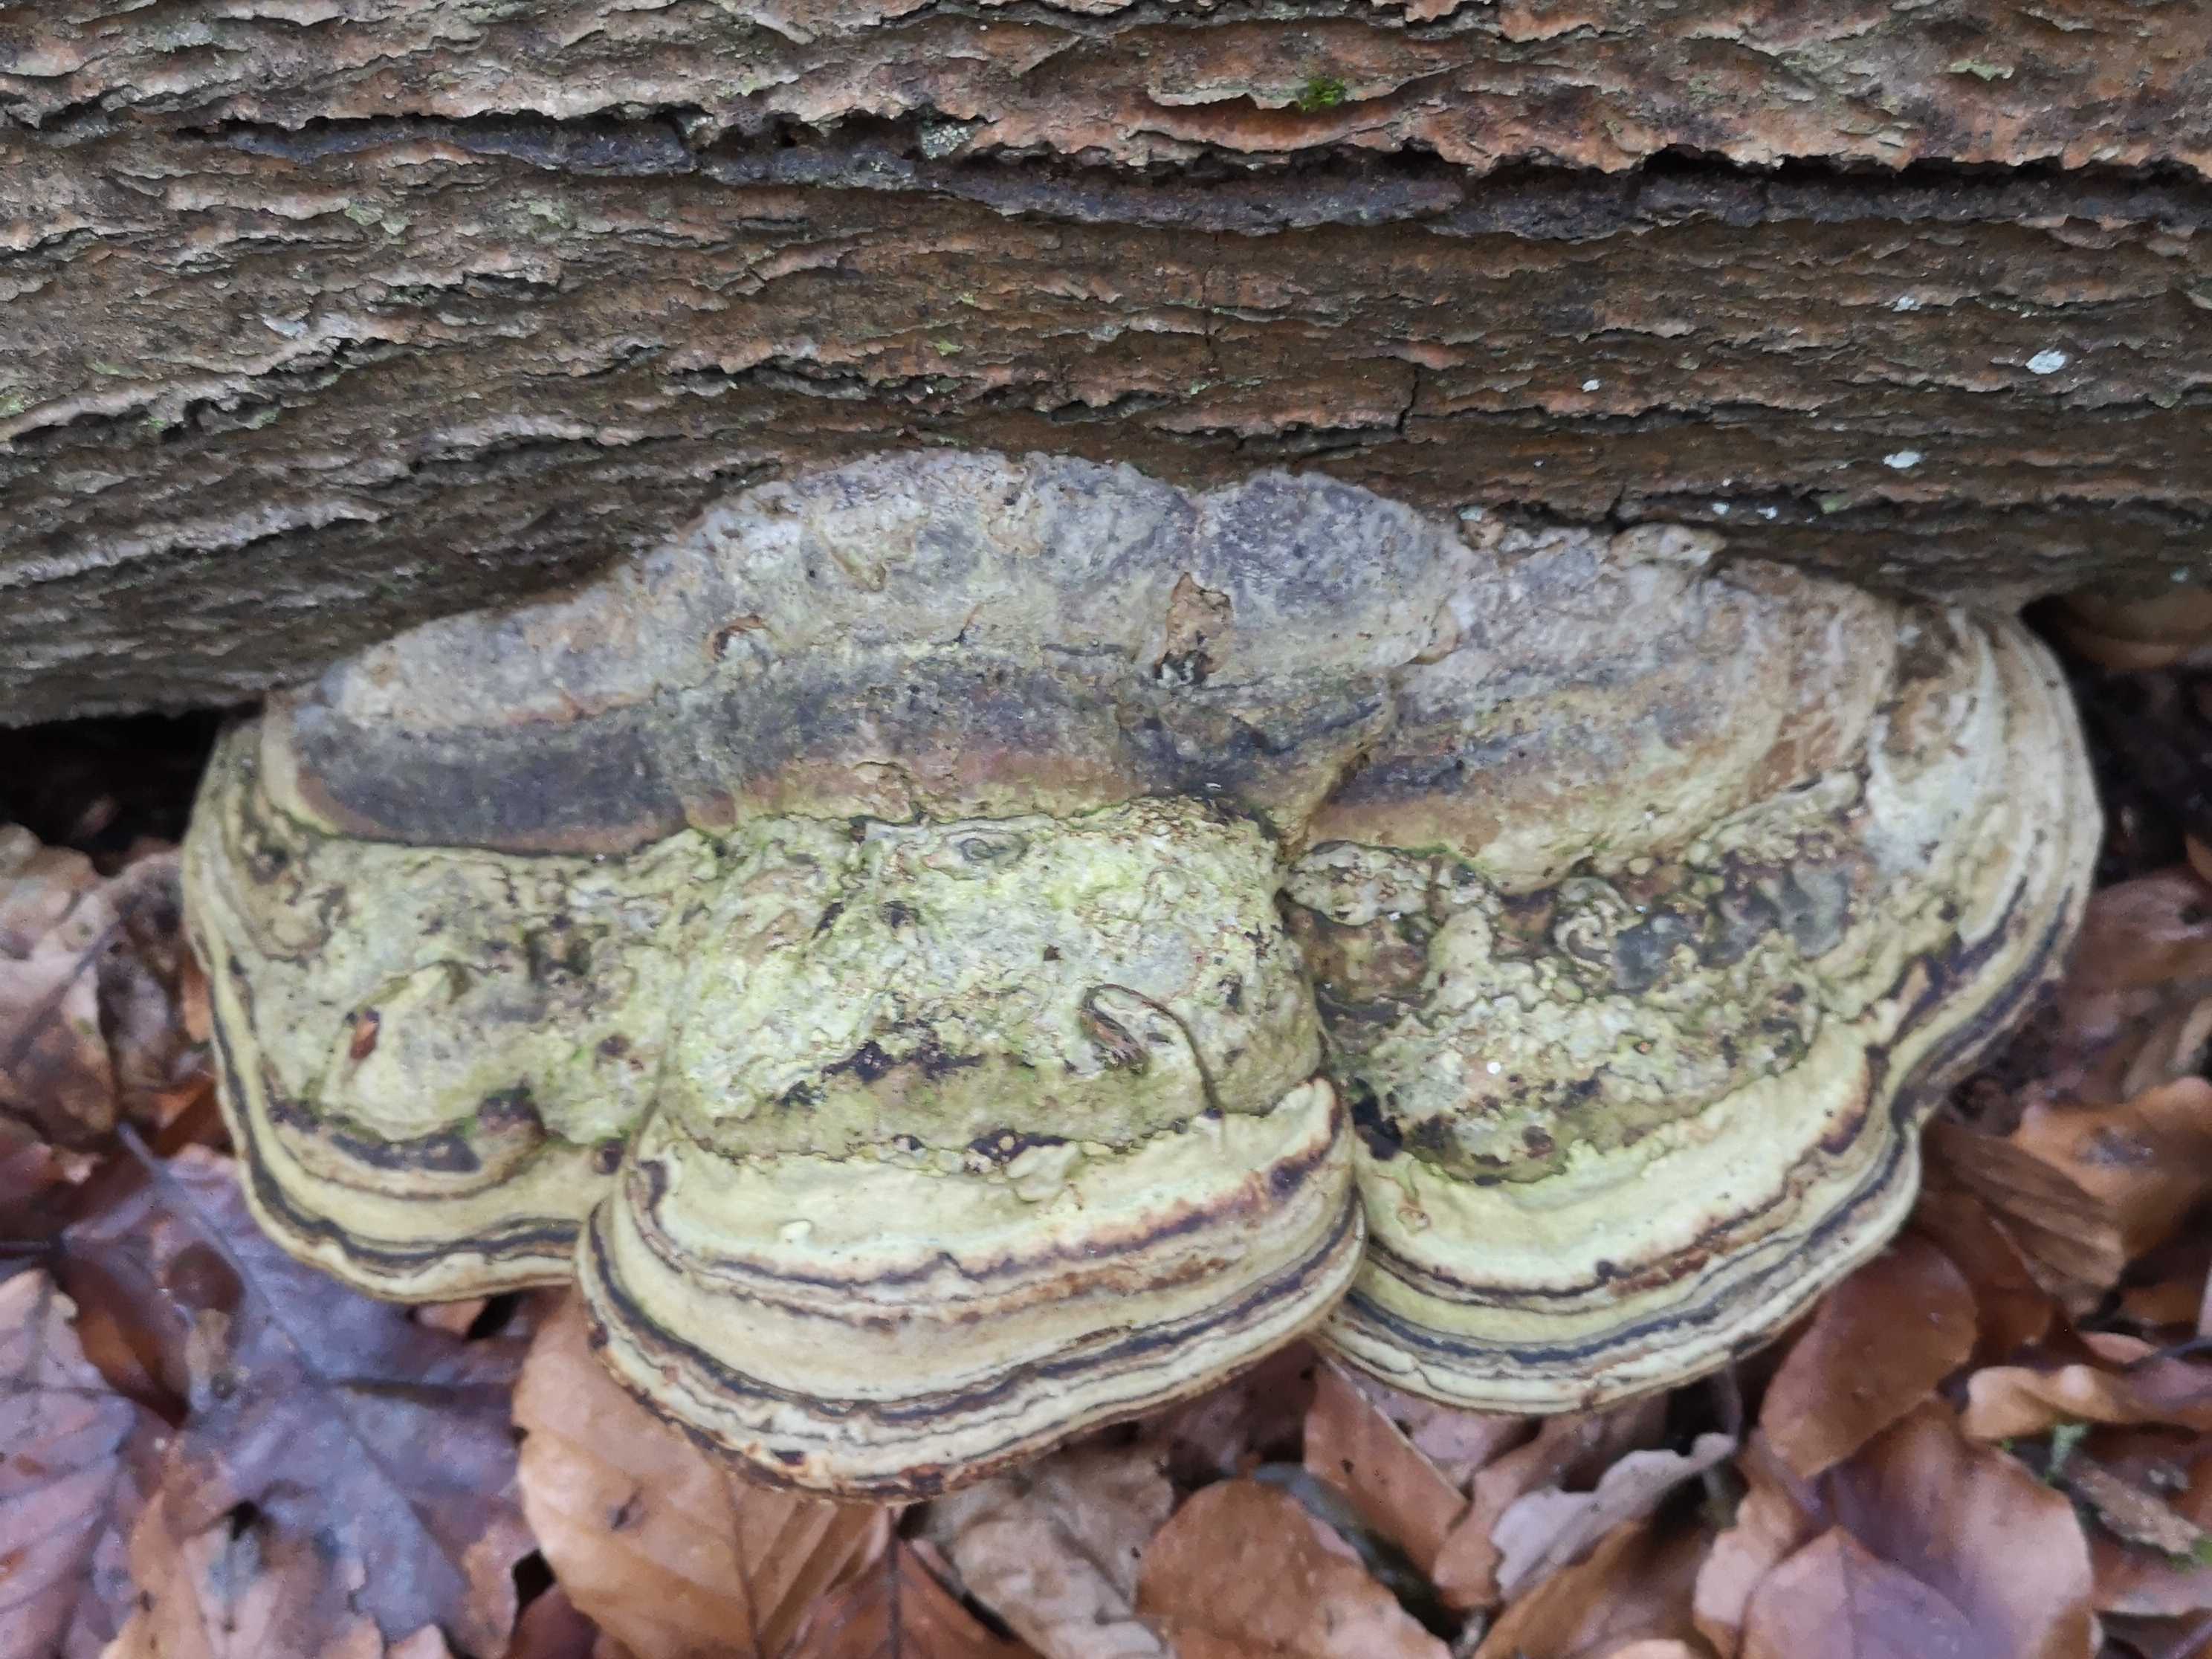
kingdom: Fungi
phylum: Basidiomycota
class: Agaricomycetes
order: Polyporales
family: Polyporaceae
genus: Fomes
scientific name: Fomes fomentarius
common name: tøndersvamp
